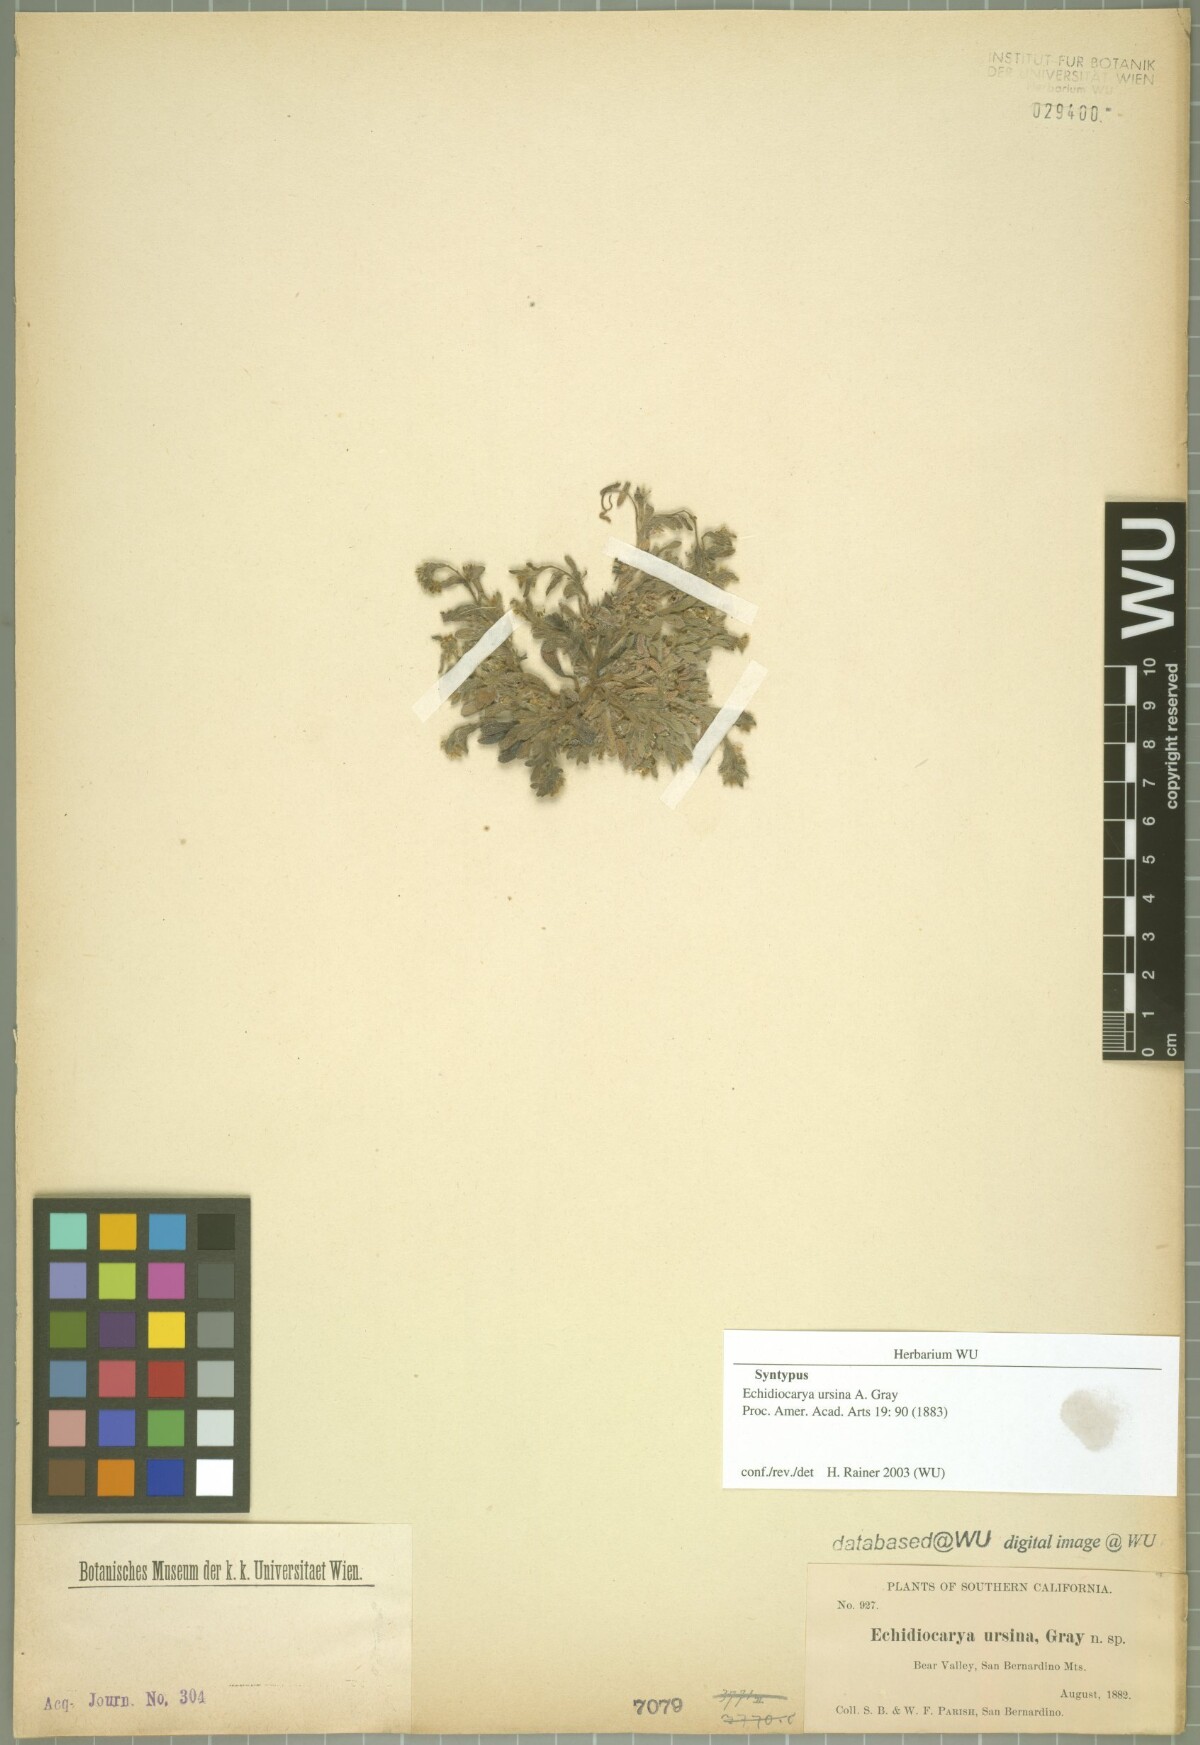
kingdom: Plantae
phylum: Tracheophyta
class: Magnoliopsida
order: Boraginales
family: Boraginaceae
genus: Plagiobothrys
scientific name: Plagiobothrys collinus
